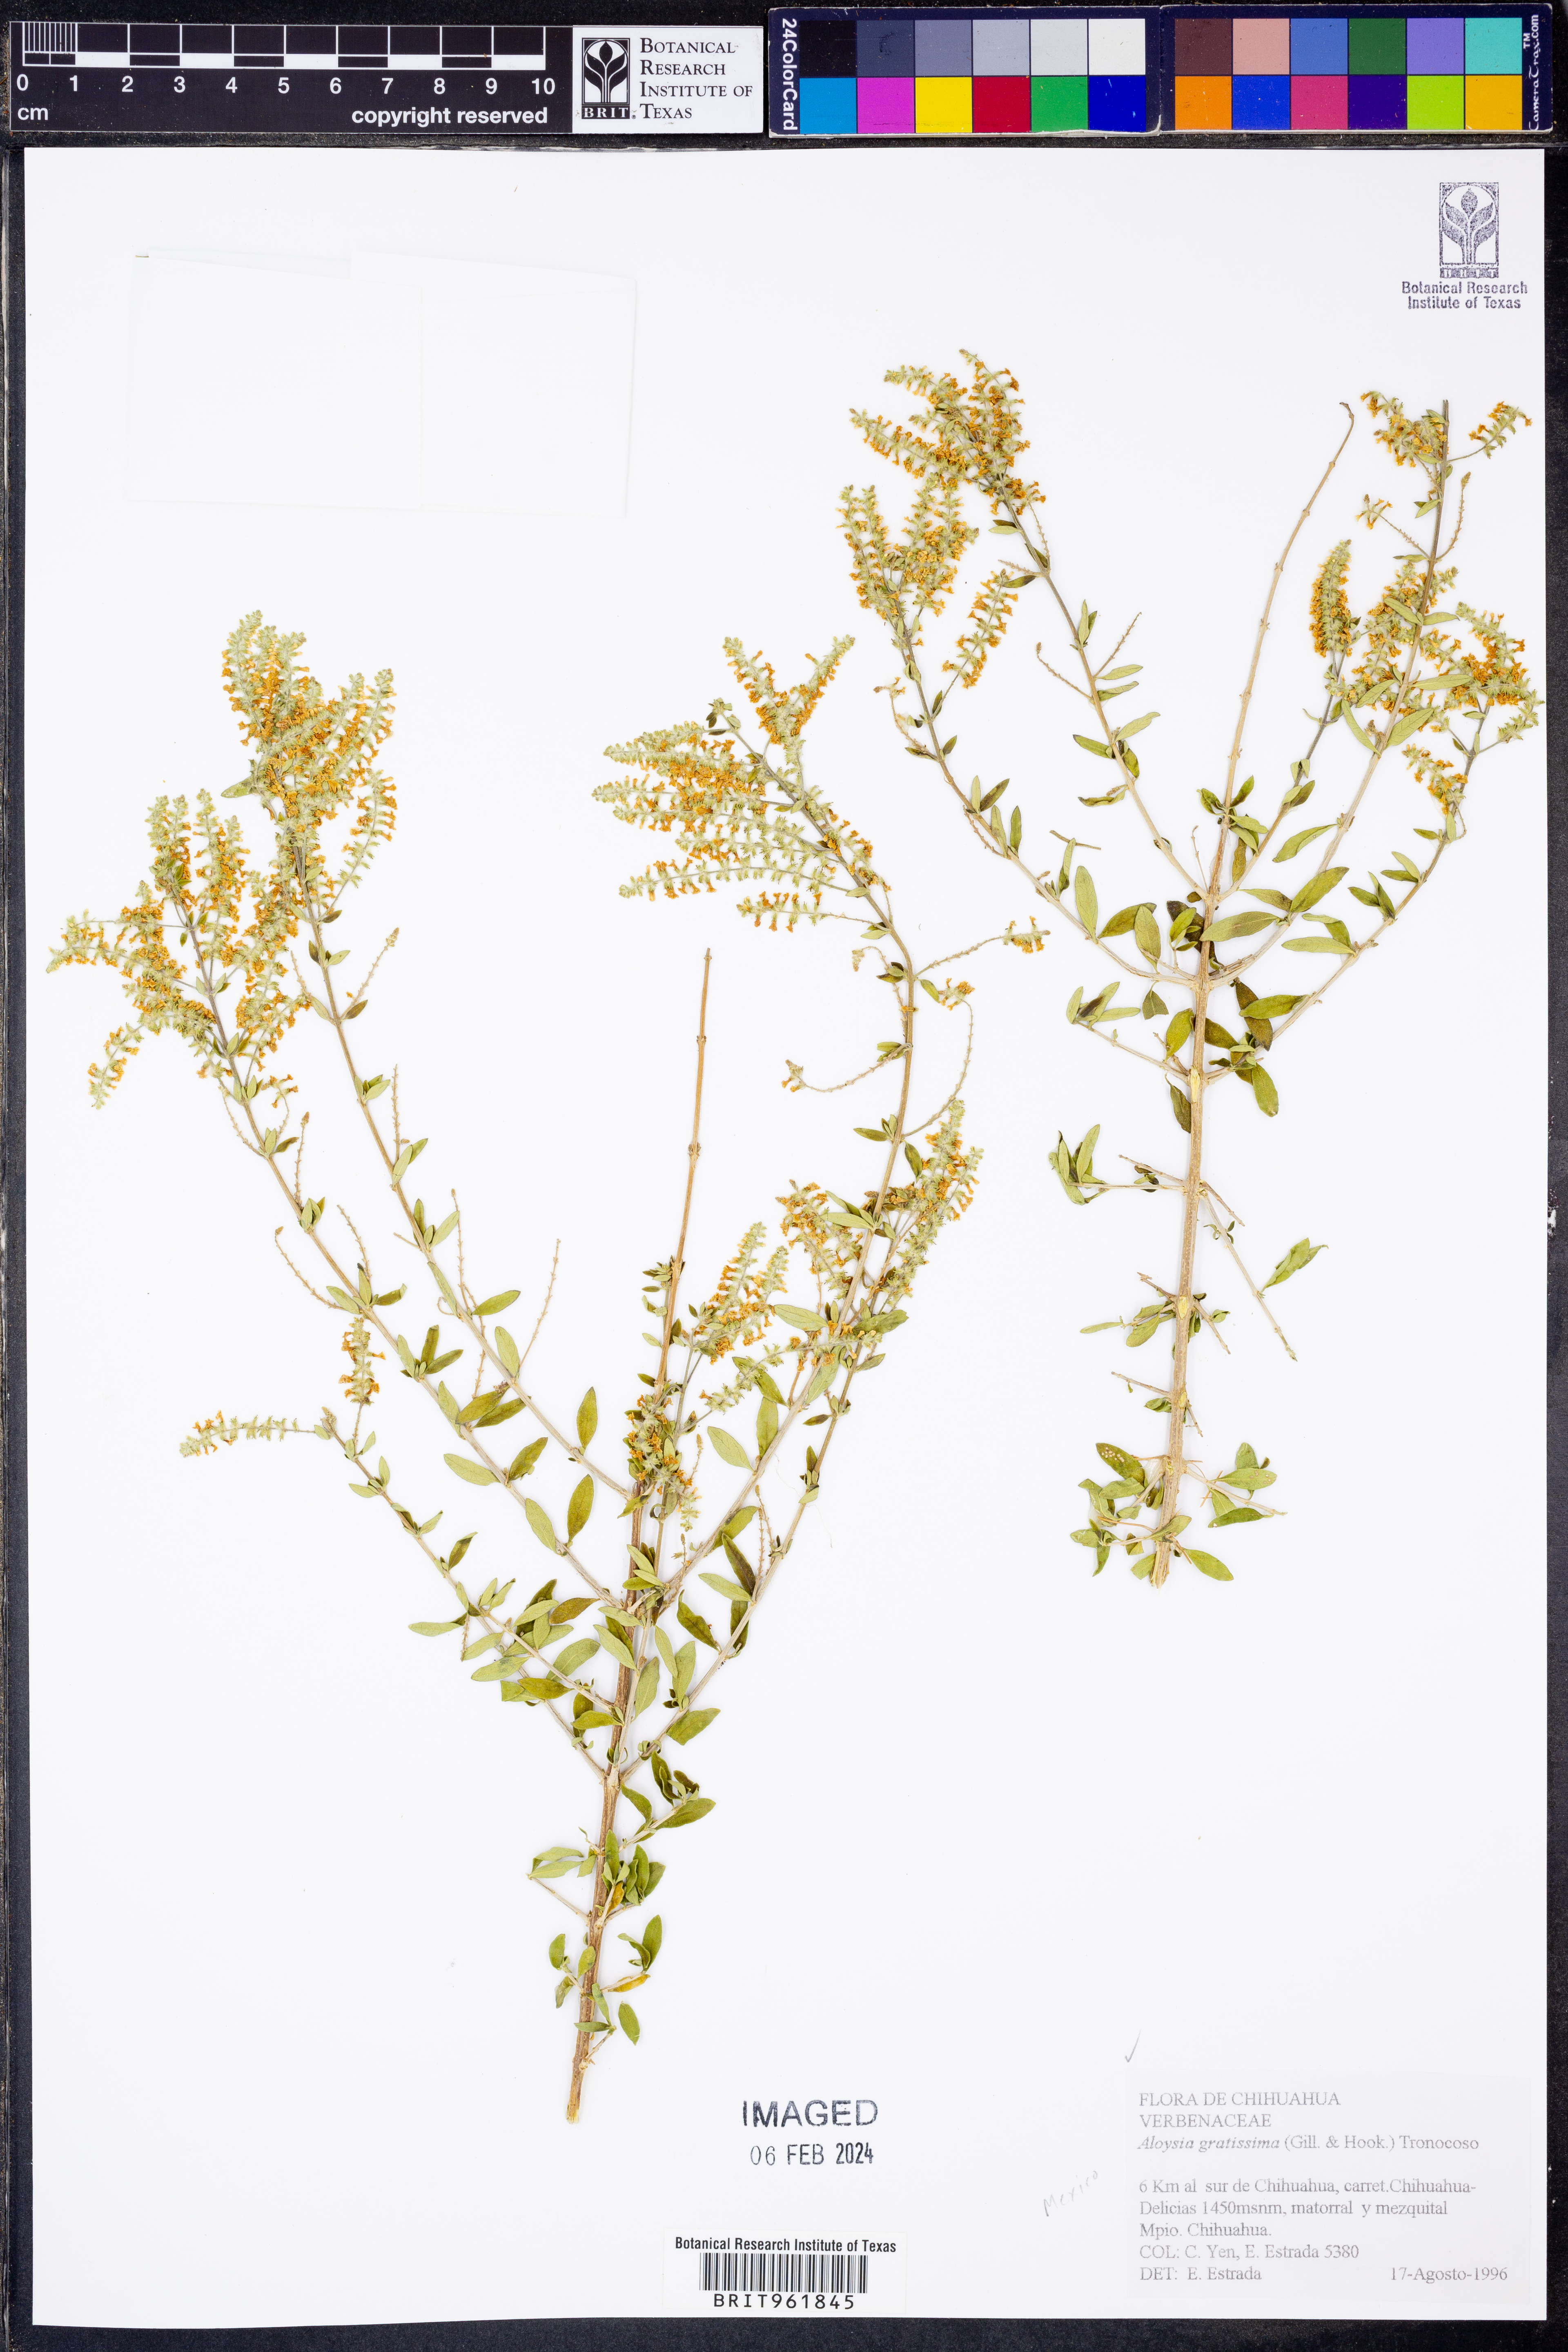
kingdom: Plantae
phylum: Tracheophyta
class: Magnoliopsida
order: Lamiales
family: Verbenaceae
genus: Aloysia
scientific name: Aloysia gratissima
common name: Common bee-brush
